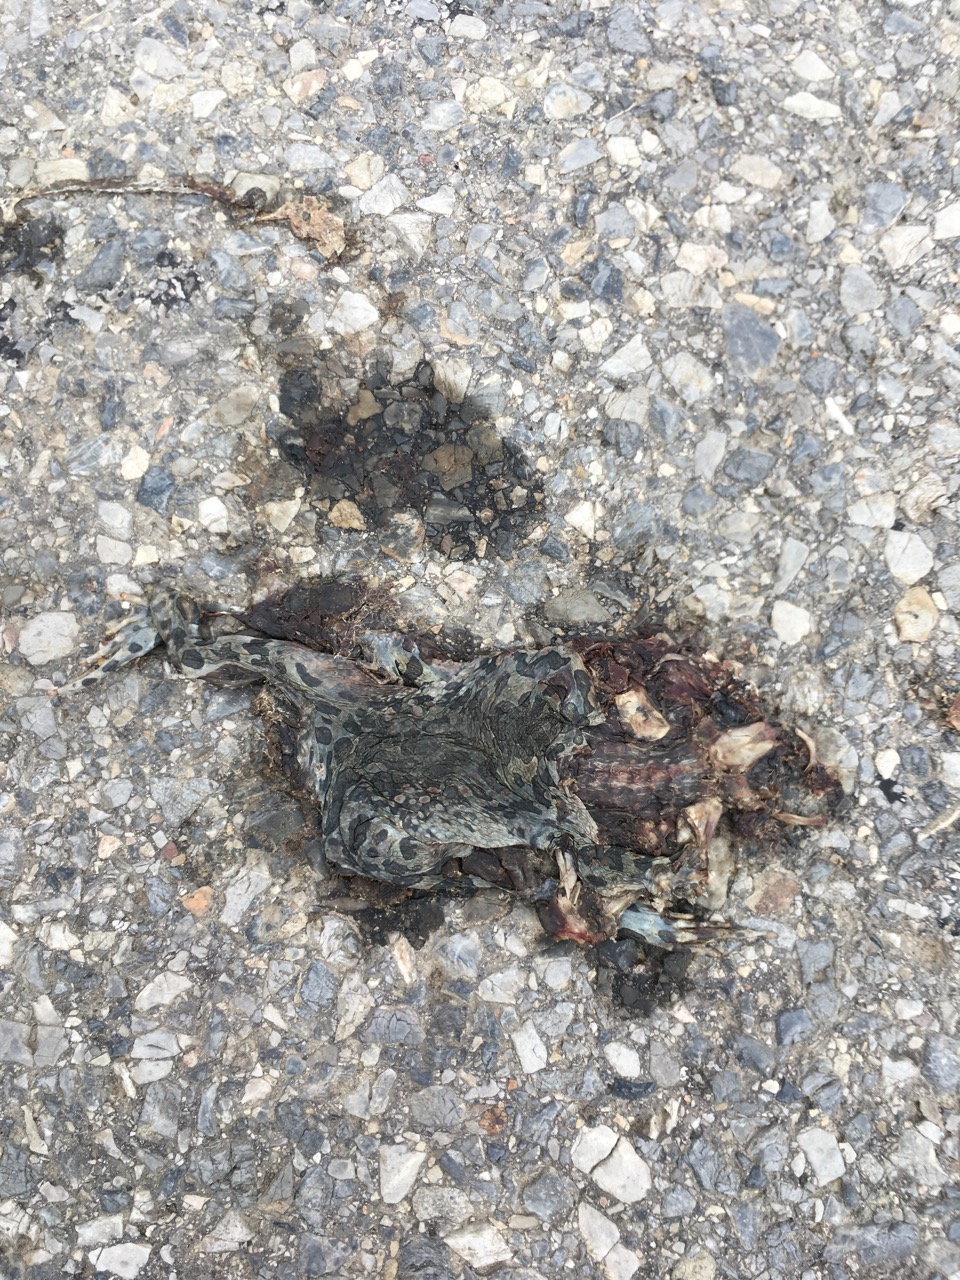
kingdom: Animalia
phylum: Chordata
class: Amphibia
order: Anura
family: Bufonidae
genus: Bufotes
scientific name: Bufotes viridis
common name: European green toad
